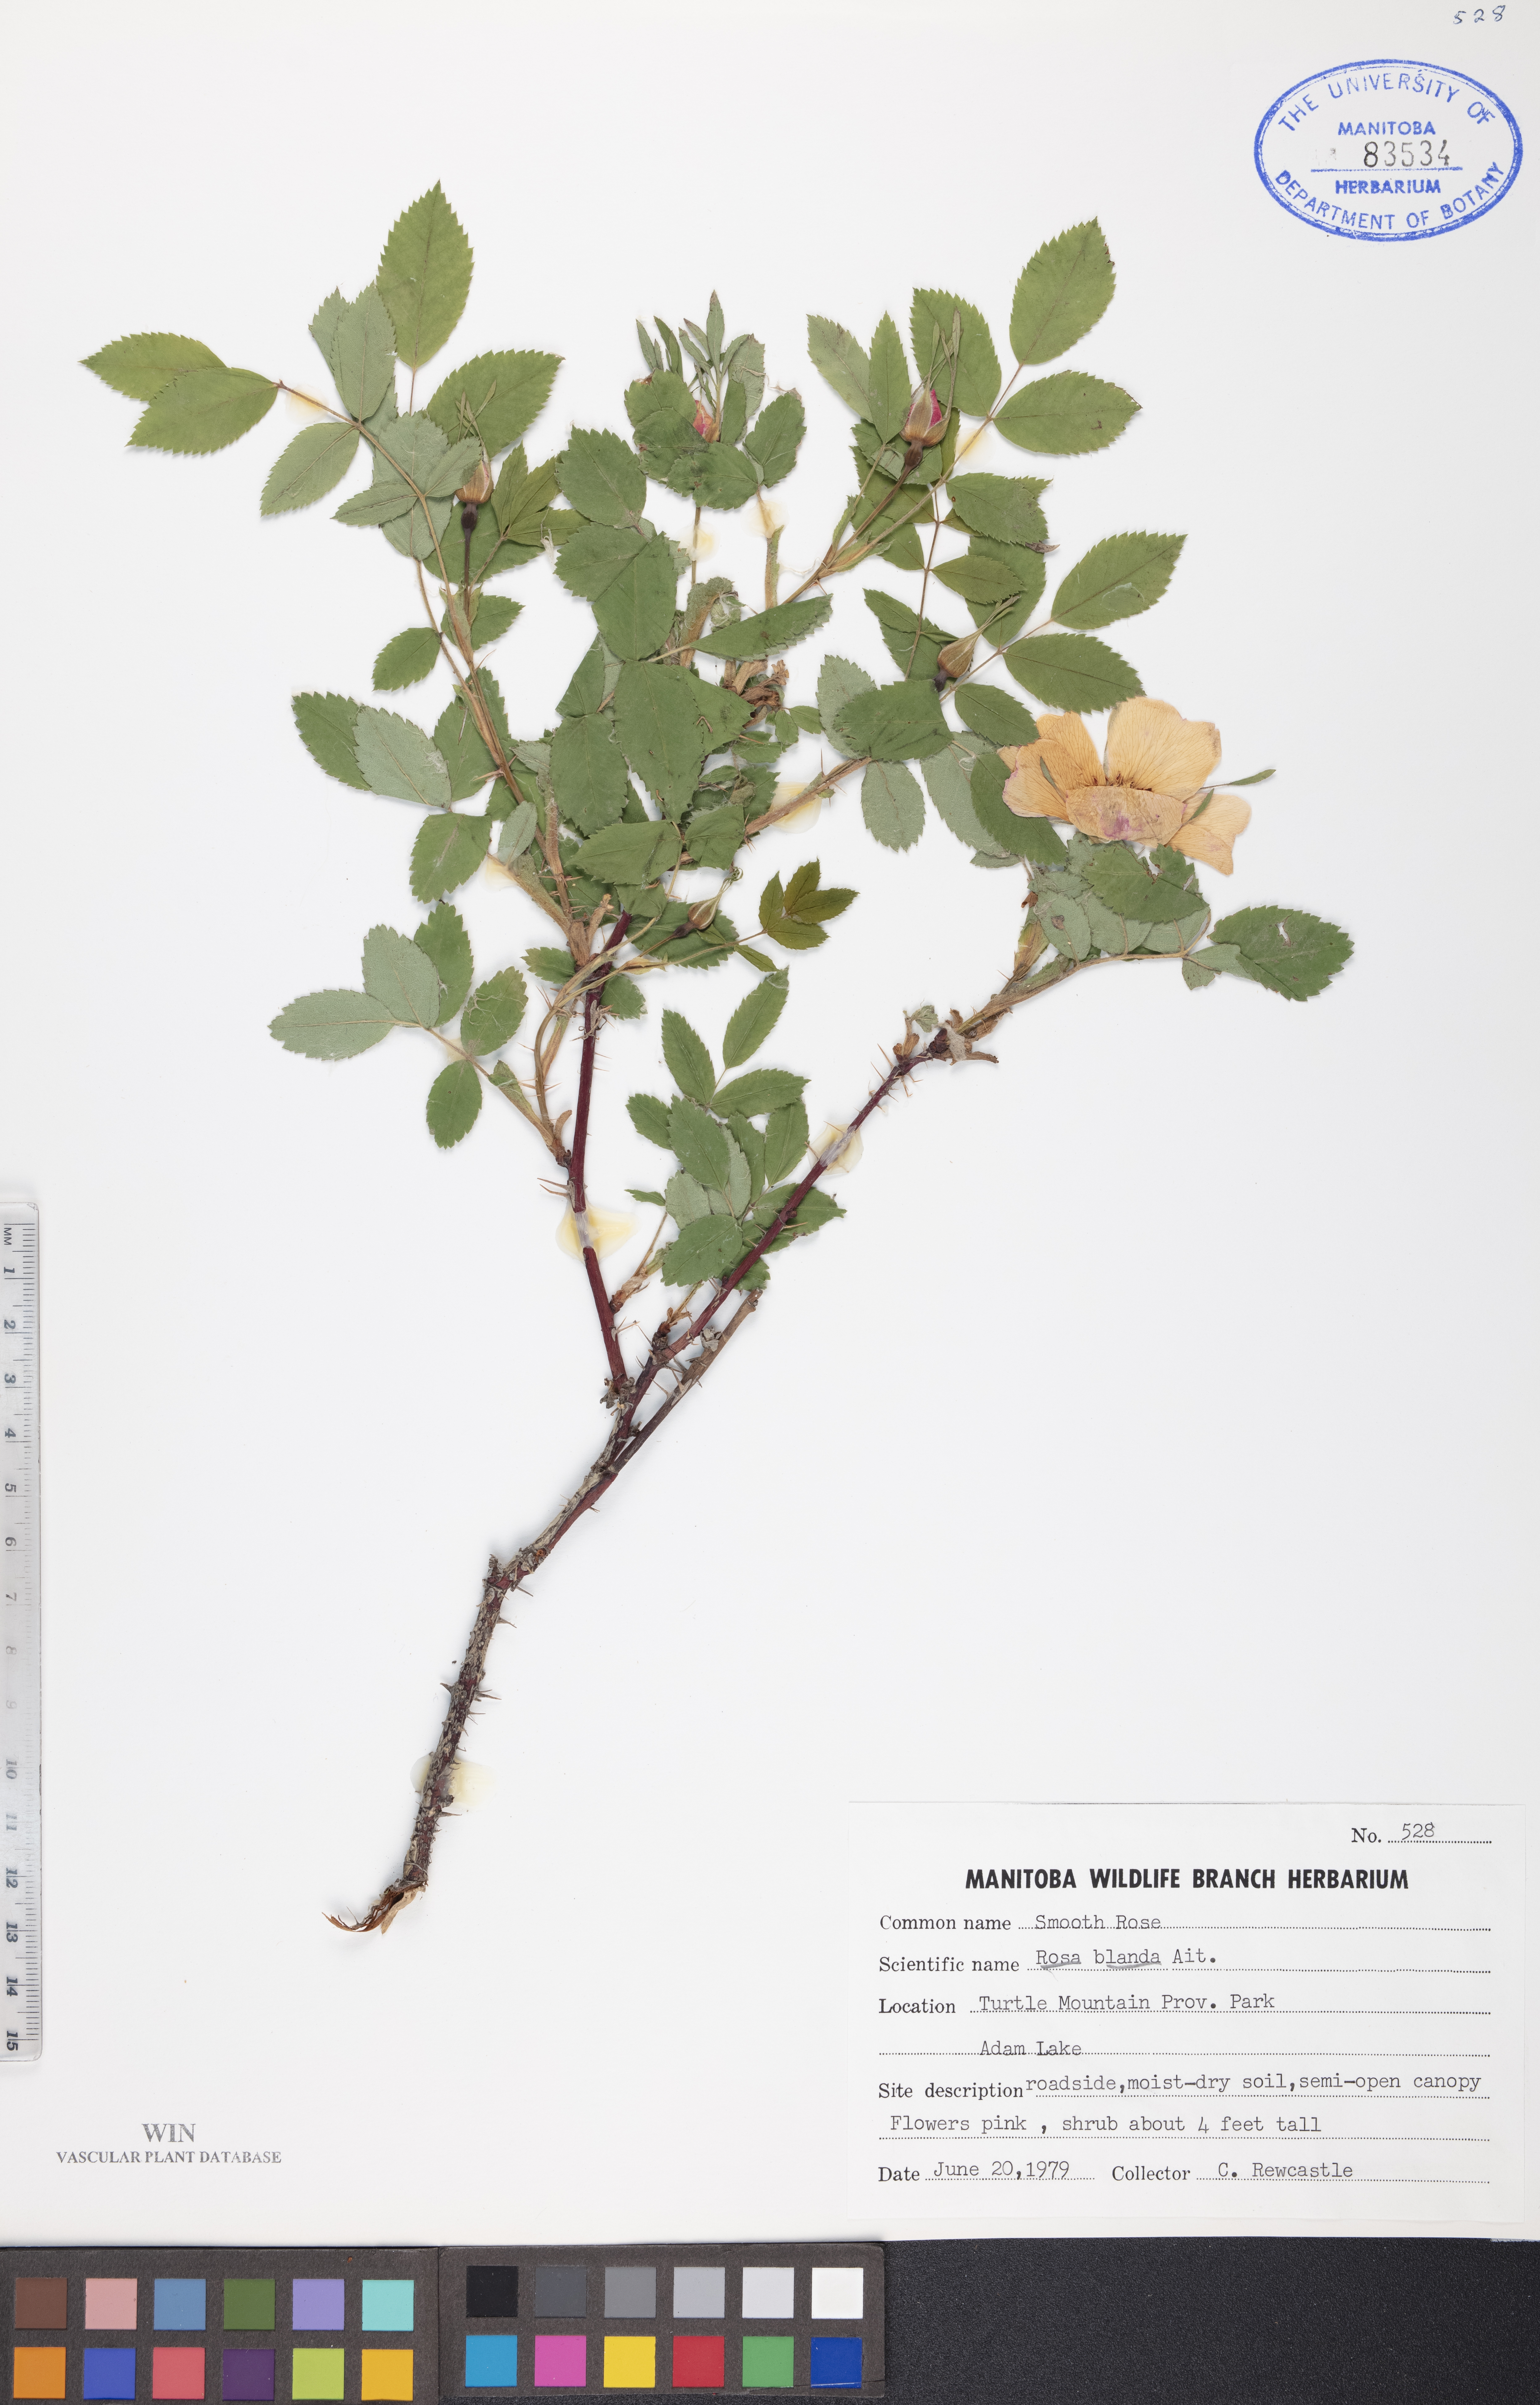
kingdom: Plantae
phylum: Tracheophyta
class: Magnoliopsida
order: Rosales
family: Rosaceae
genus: Rosa
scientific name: Rosa blanda
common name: Smooth rose
